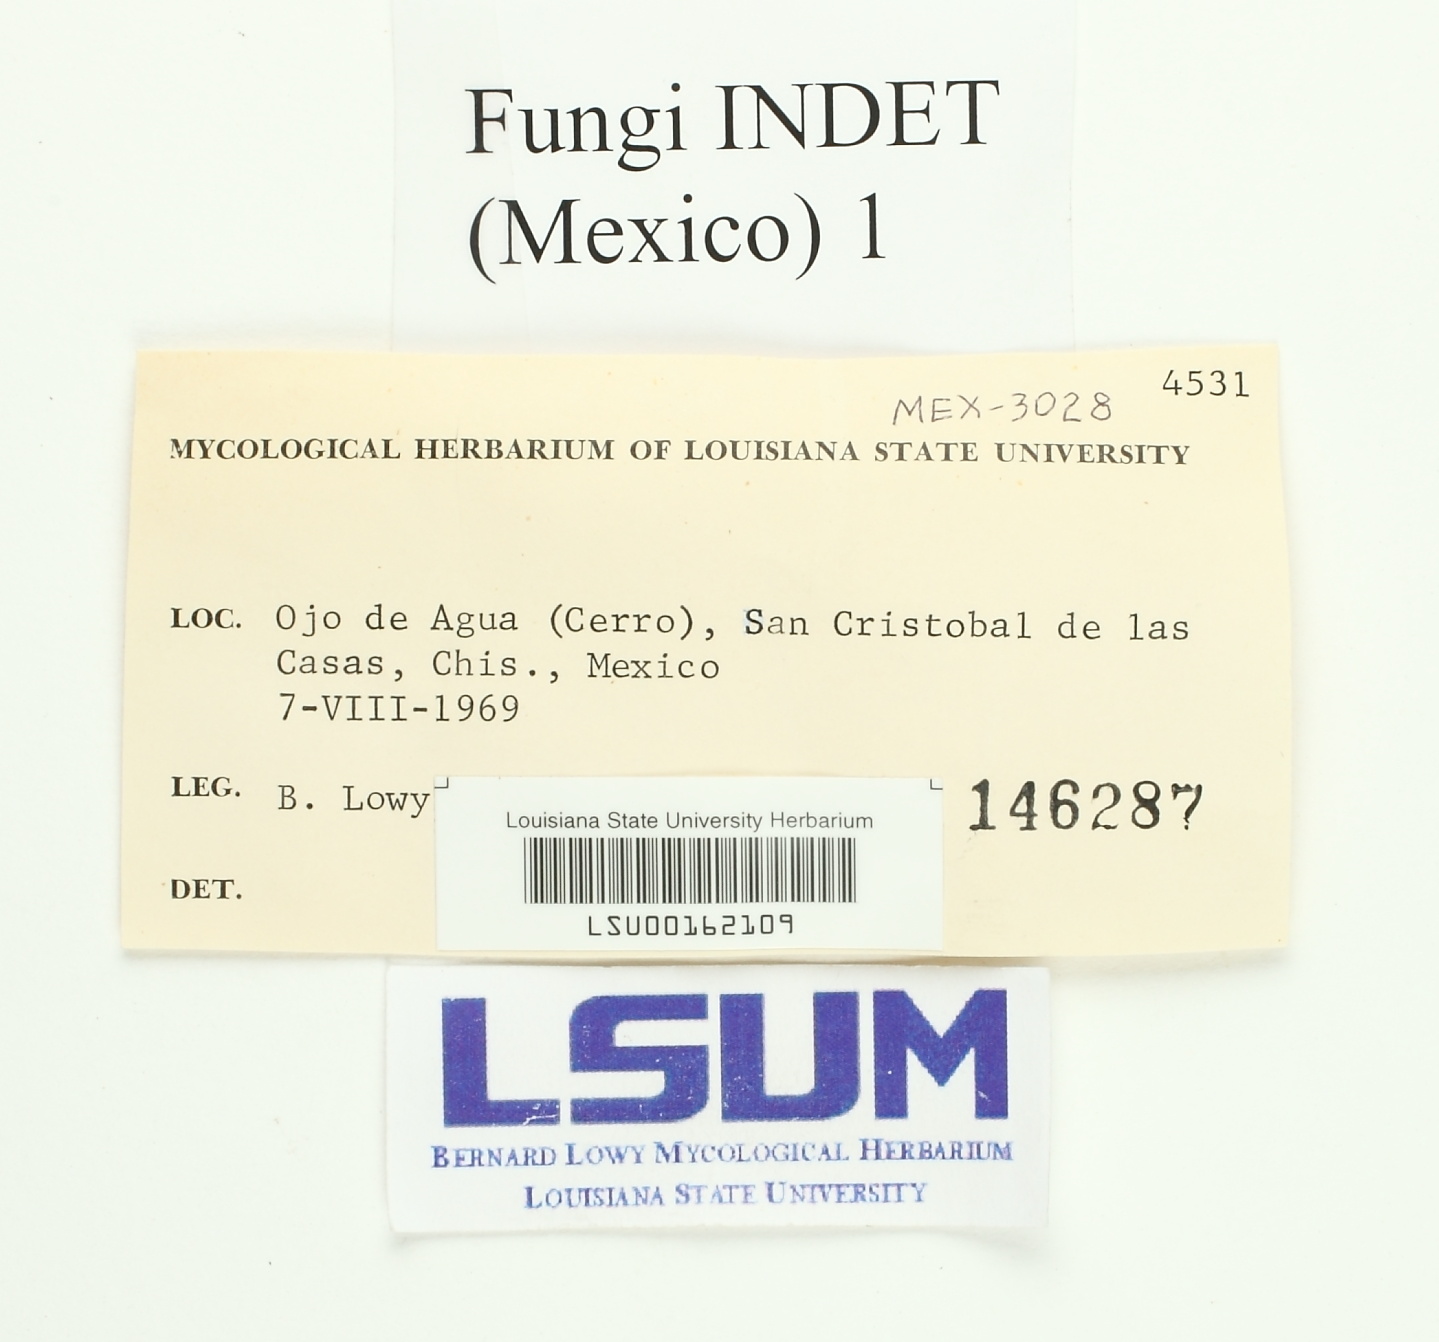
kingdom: Fungi
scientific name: Fungi
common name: Fungi
